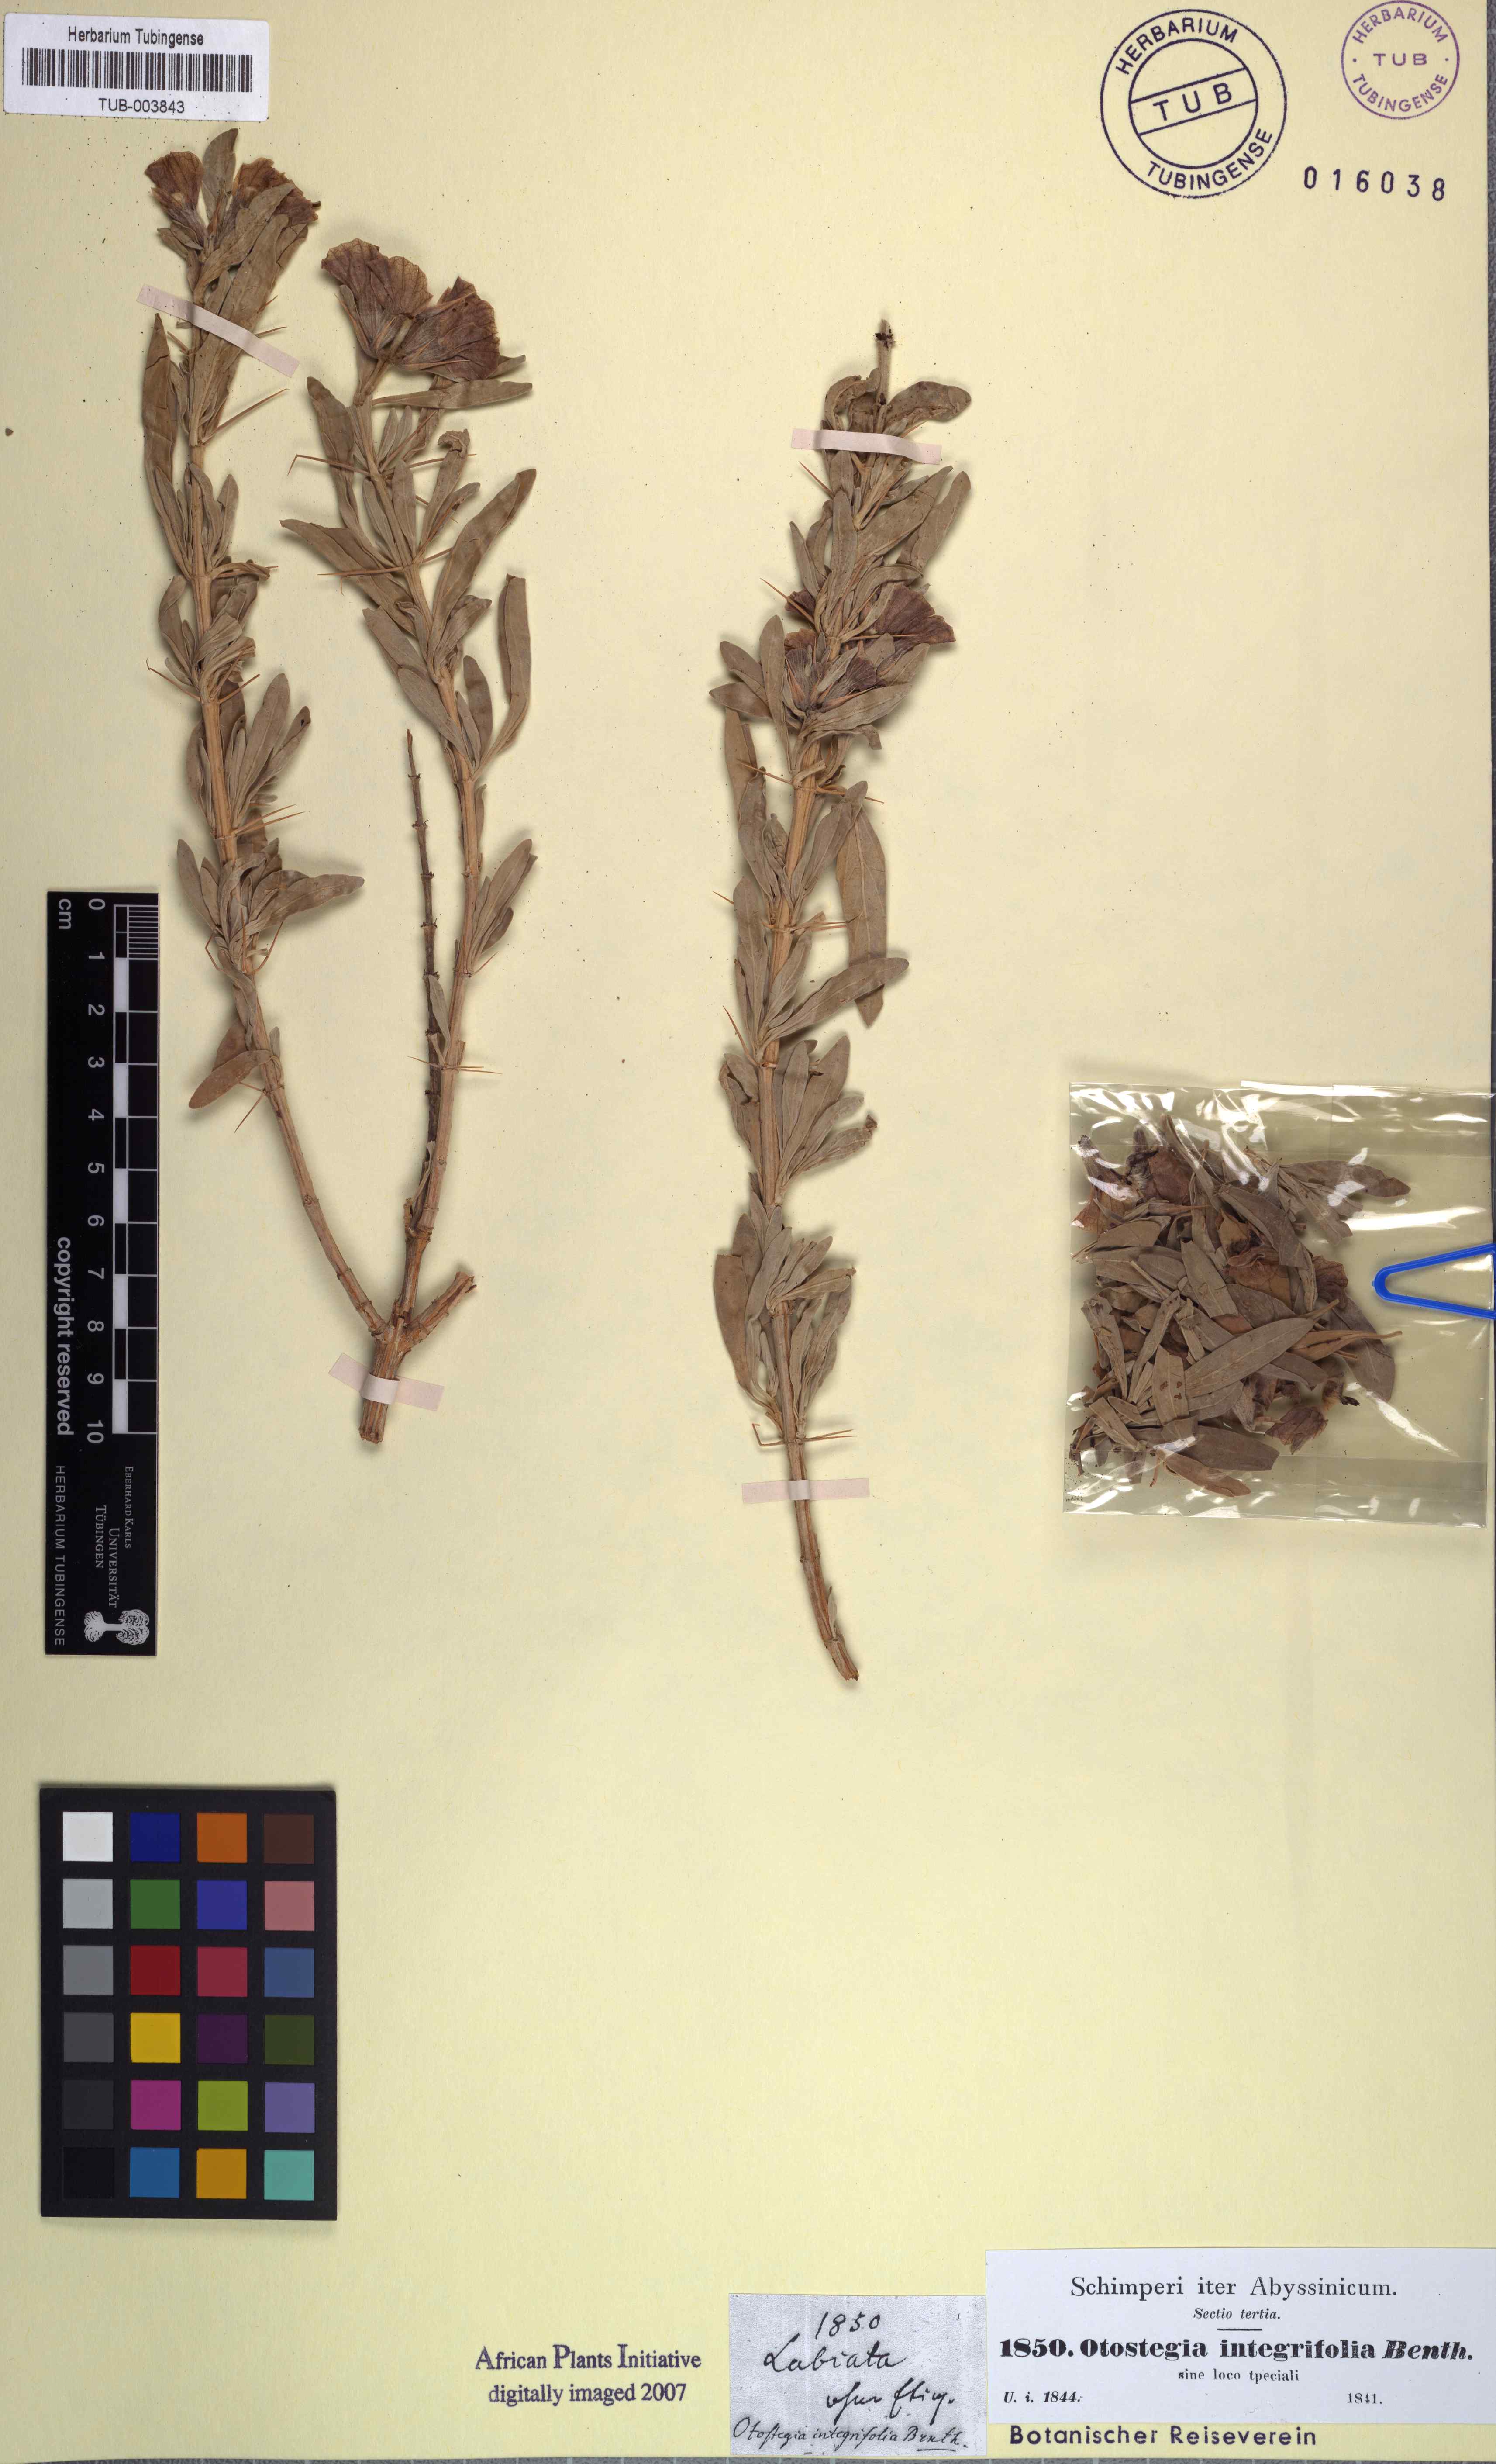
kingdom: Plantae
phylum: Tracheophyta
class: Magnoliopsida
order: Lamiales
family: Lamiaceae
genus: Rydingia
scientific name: Rydingia integrifolia
